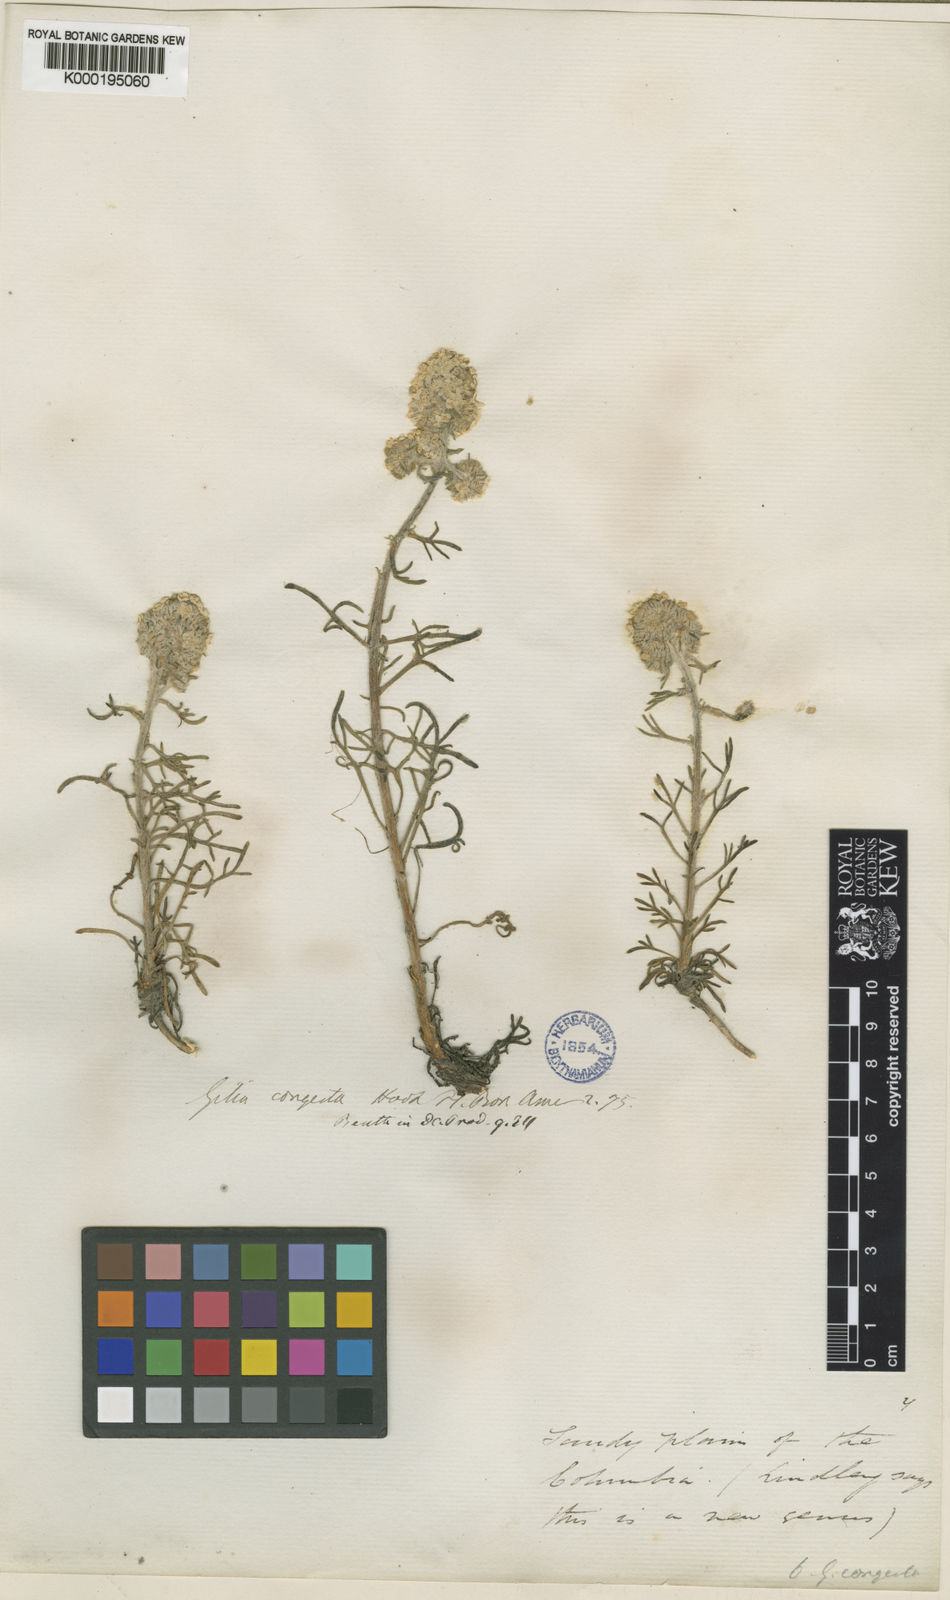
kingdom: Plantae
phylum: Tracheophyta
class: Magnoliopsida
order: Ericales
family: Polemoniaceae
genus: Ipomopsis
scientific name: Ipomopsis congesta
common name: Ball-head gilia
